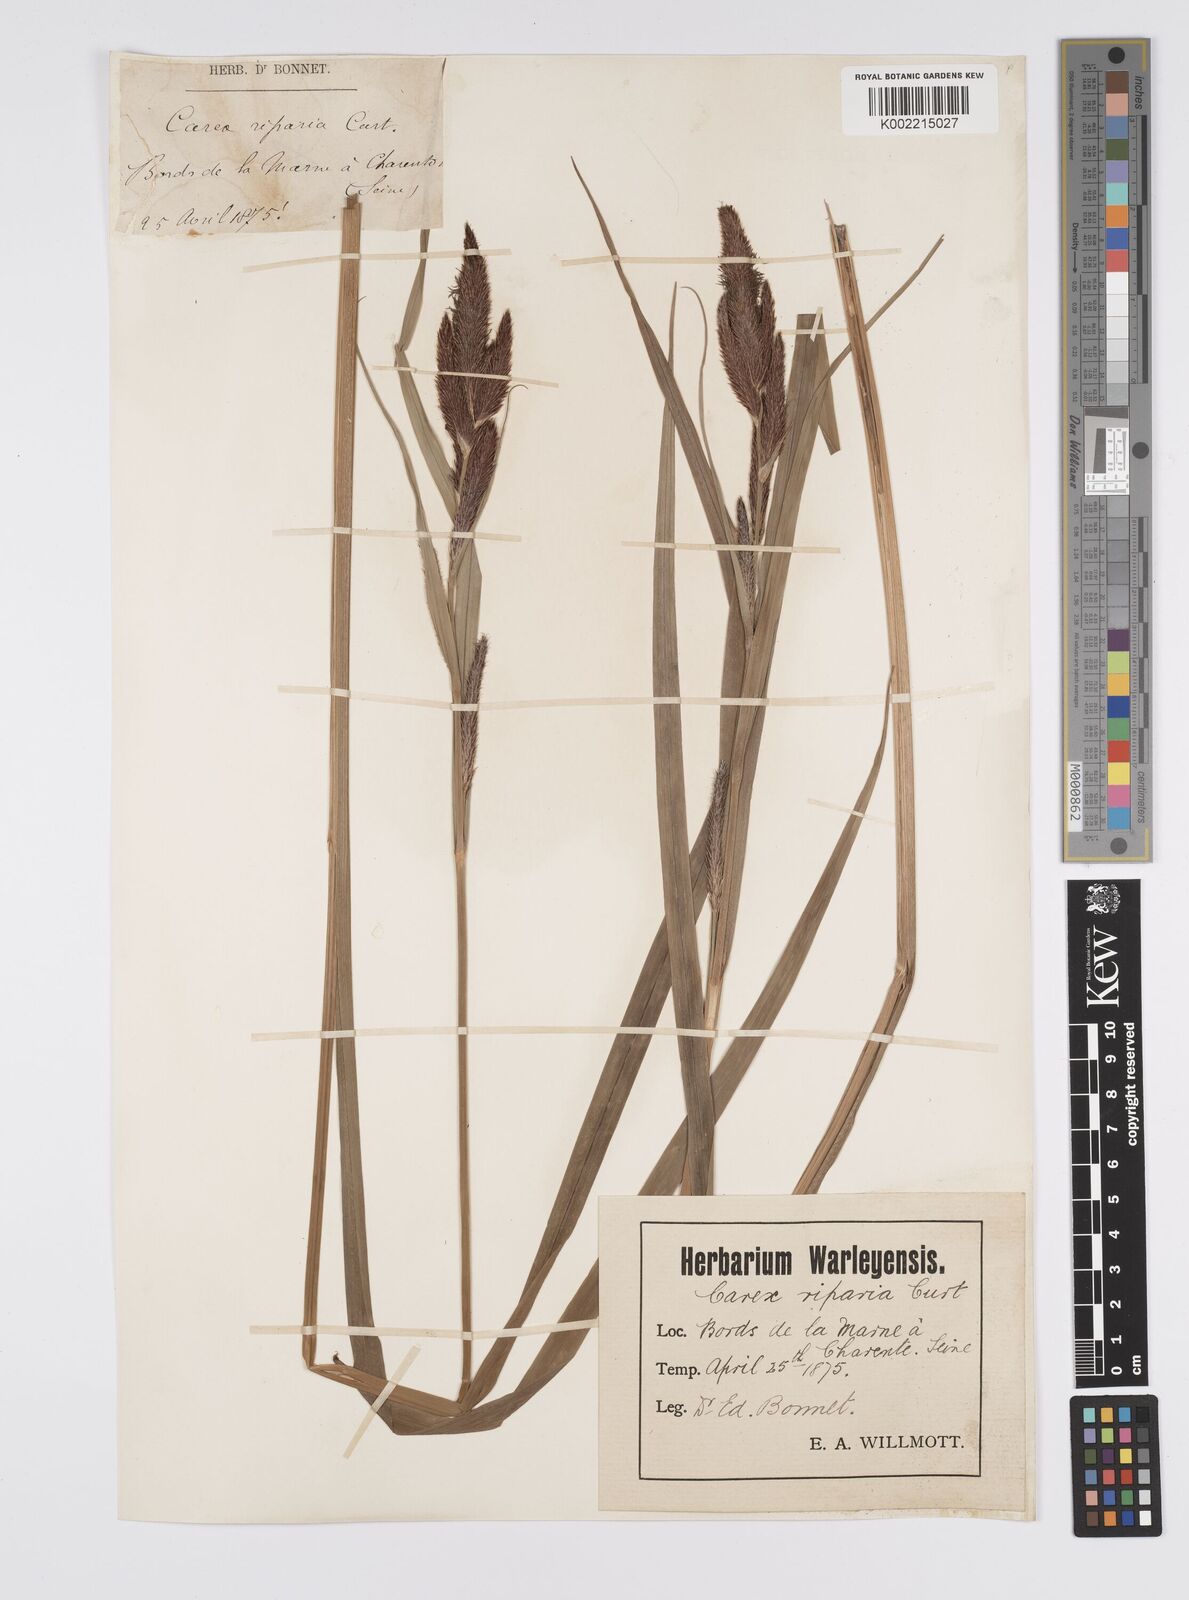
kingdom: Plantae
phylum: Tracheophyta
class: Liliopsida
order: Poales
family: Cyperaceae
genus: Carex
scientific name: Carex riparia
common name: Greater pond-sedge
